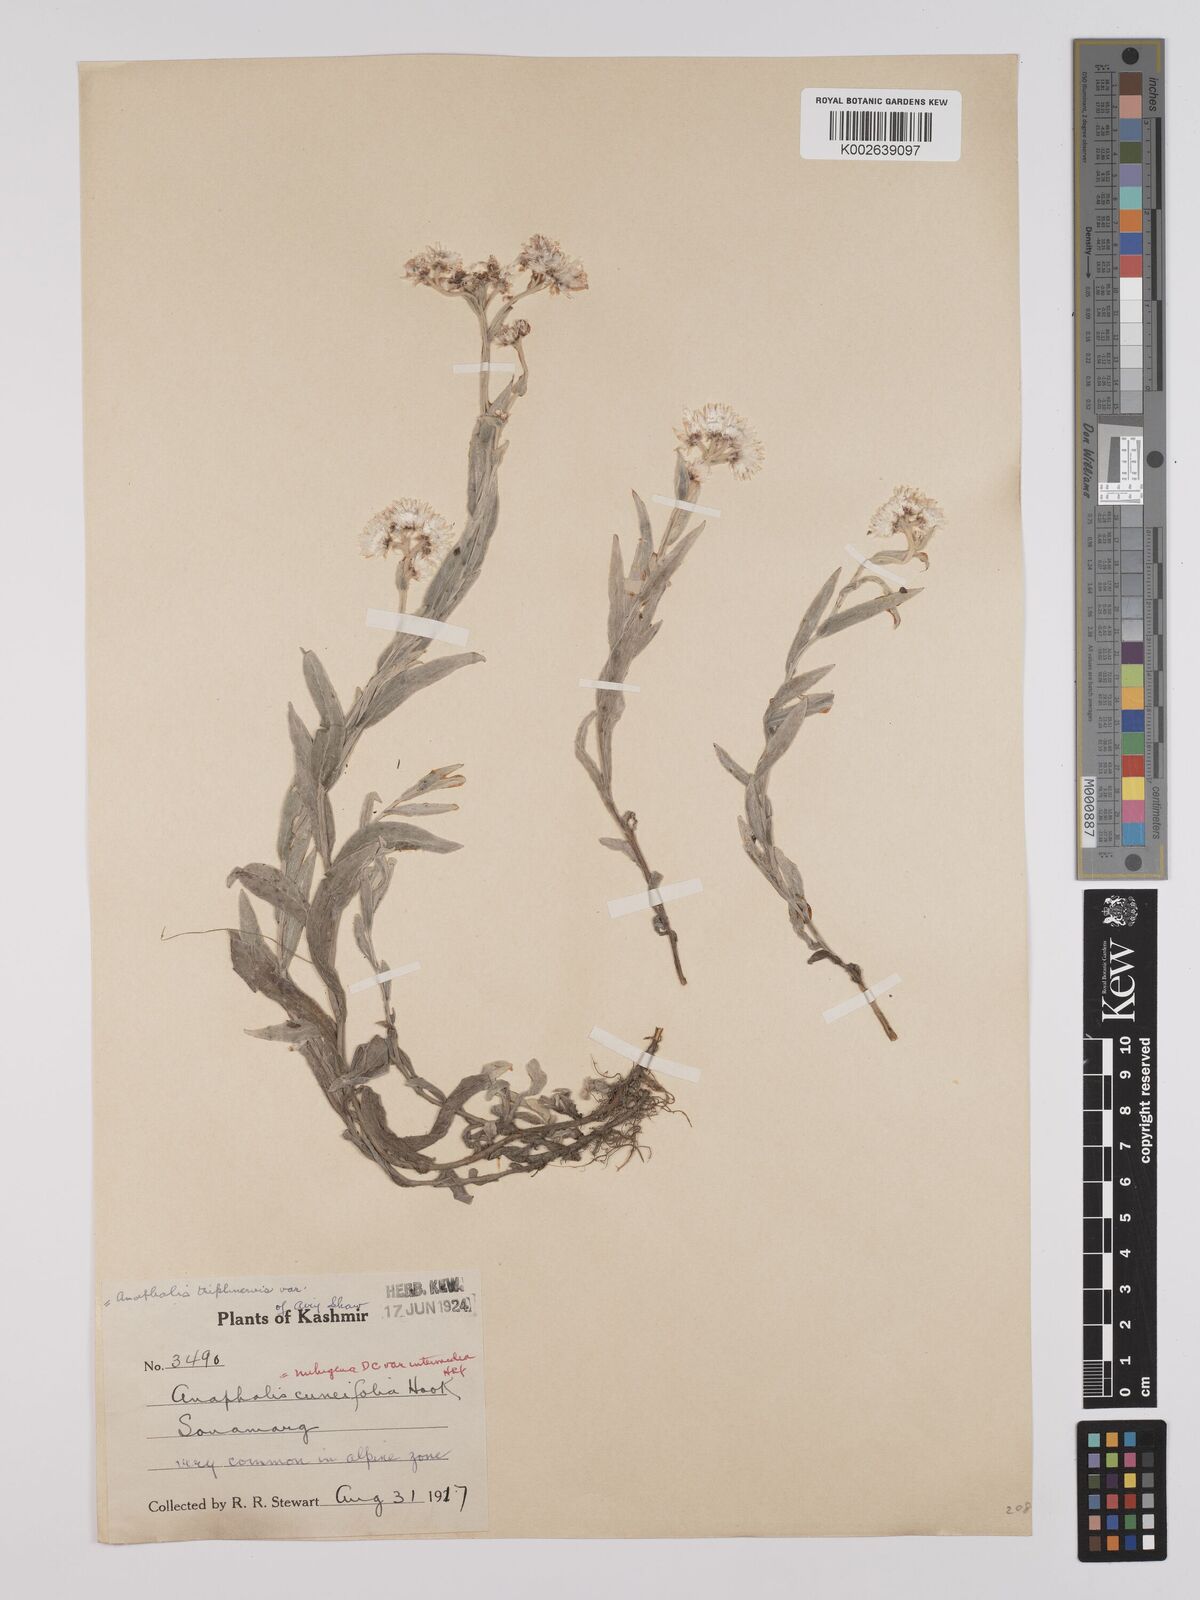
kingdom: Plantae
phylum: Tracheophyta
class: Magnoliopsida
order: Asterales
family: Asteraceae
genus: Anaphalioides
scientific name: Anaphalioides trinervis
